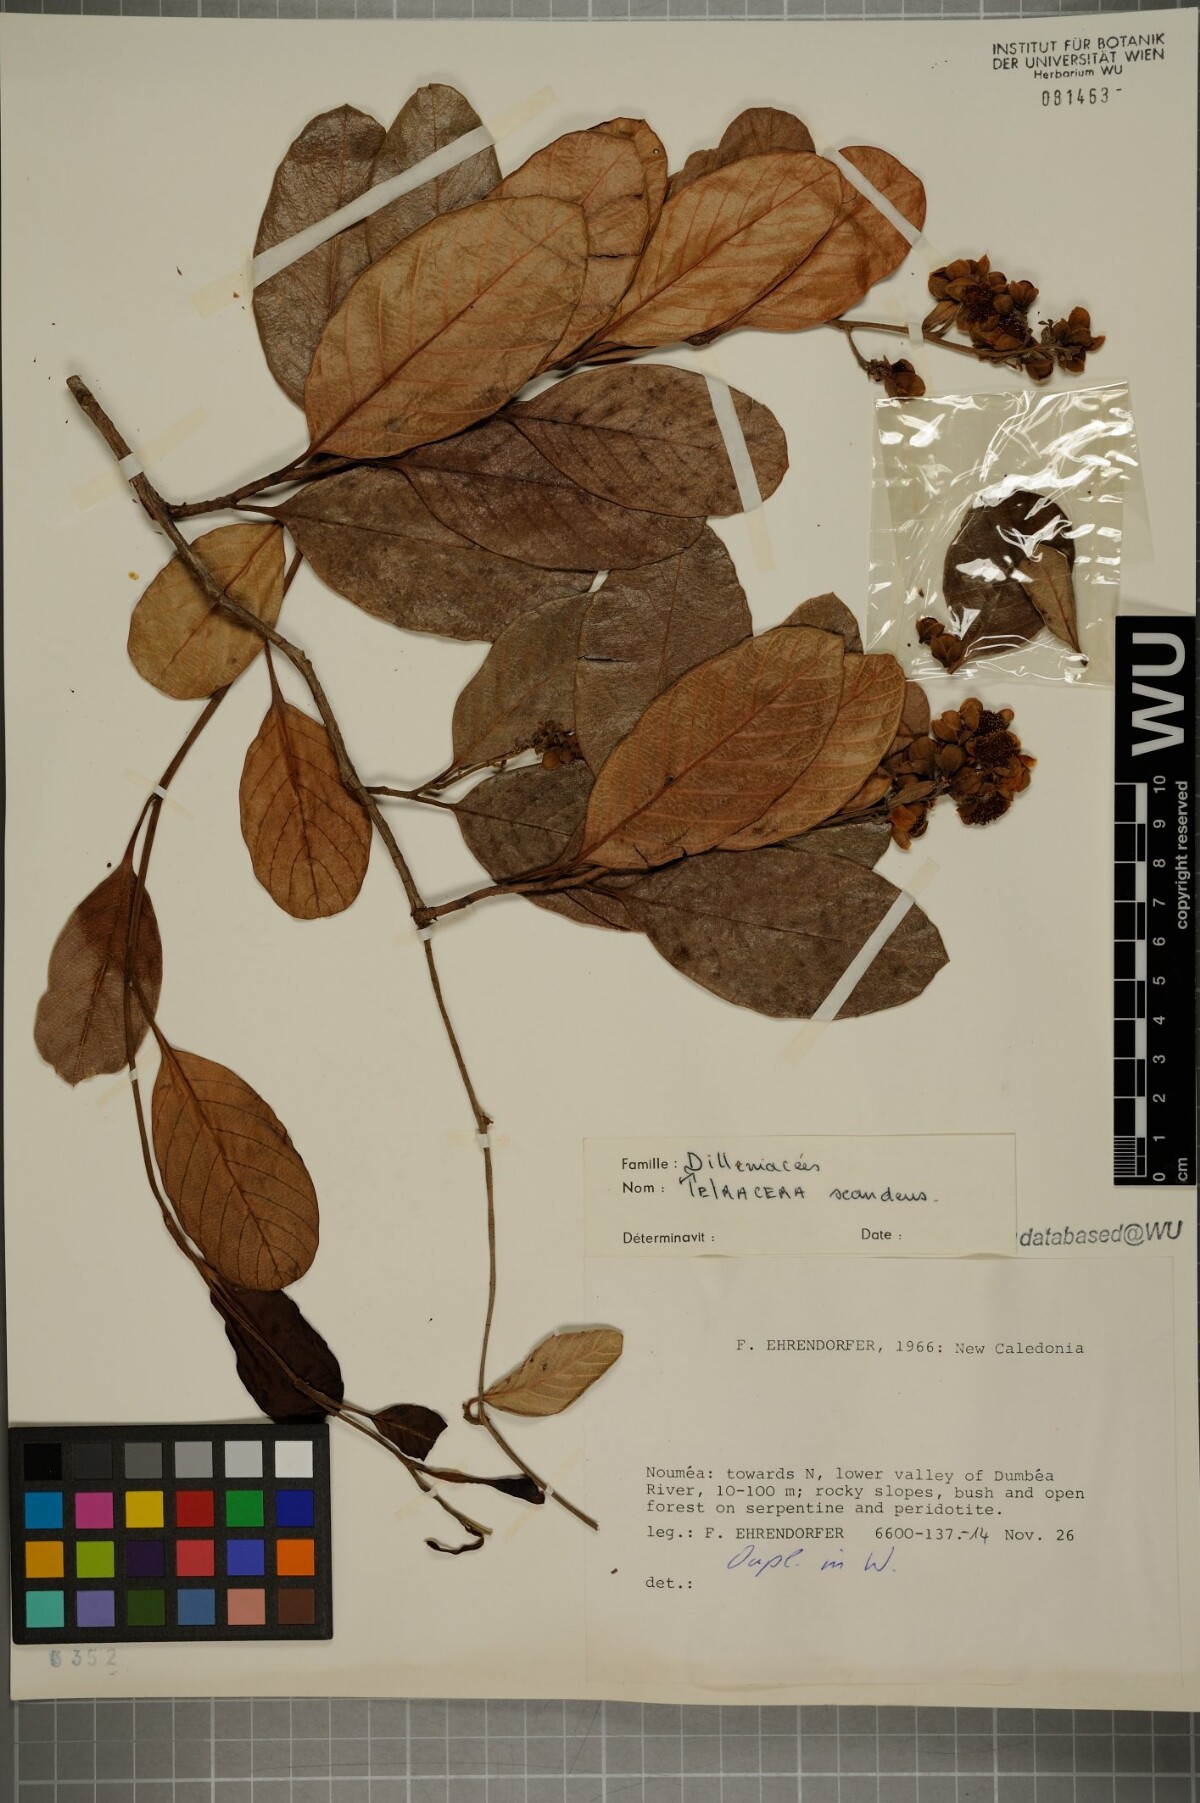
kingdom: Plantae
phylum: Tracheophyta
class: Magnoliopsida
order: Dilleniales
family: Dilleniaceae
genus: Tetracera
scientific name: Tetracera sarmentosa
